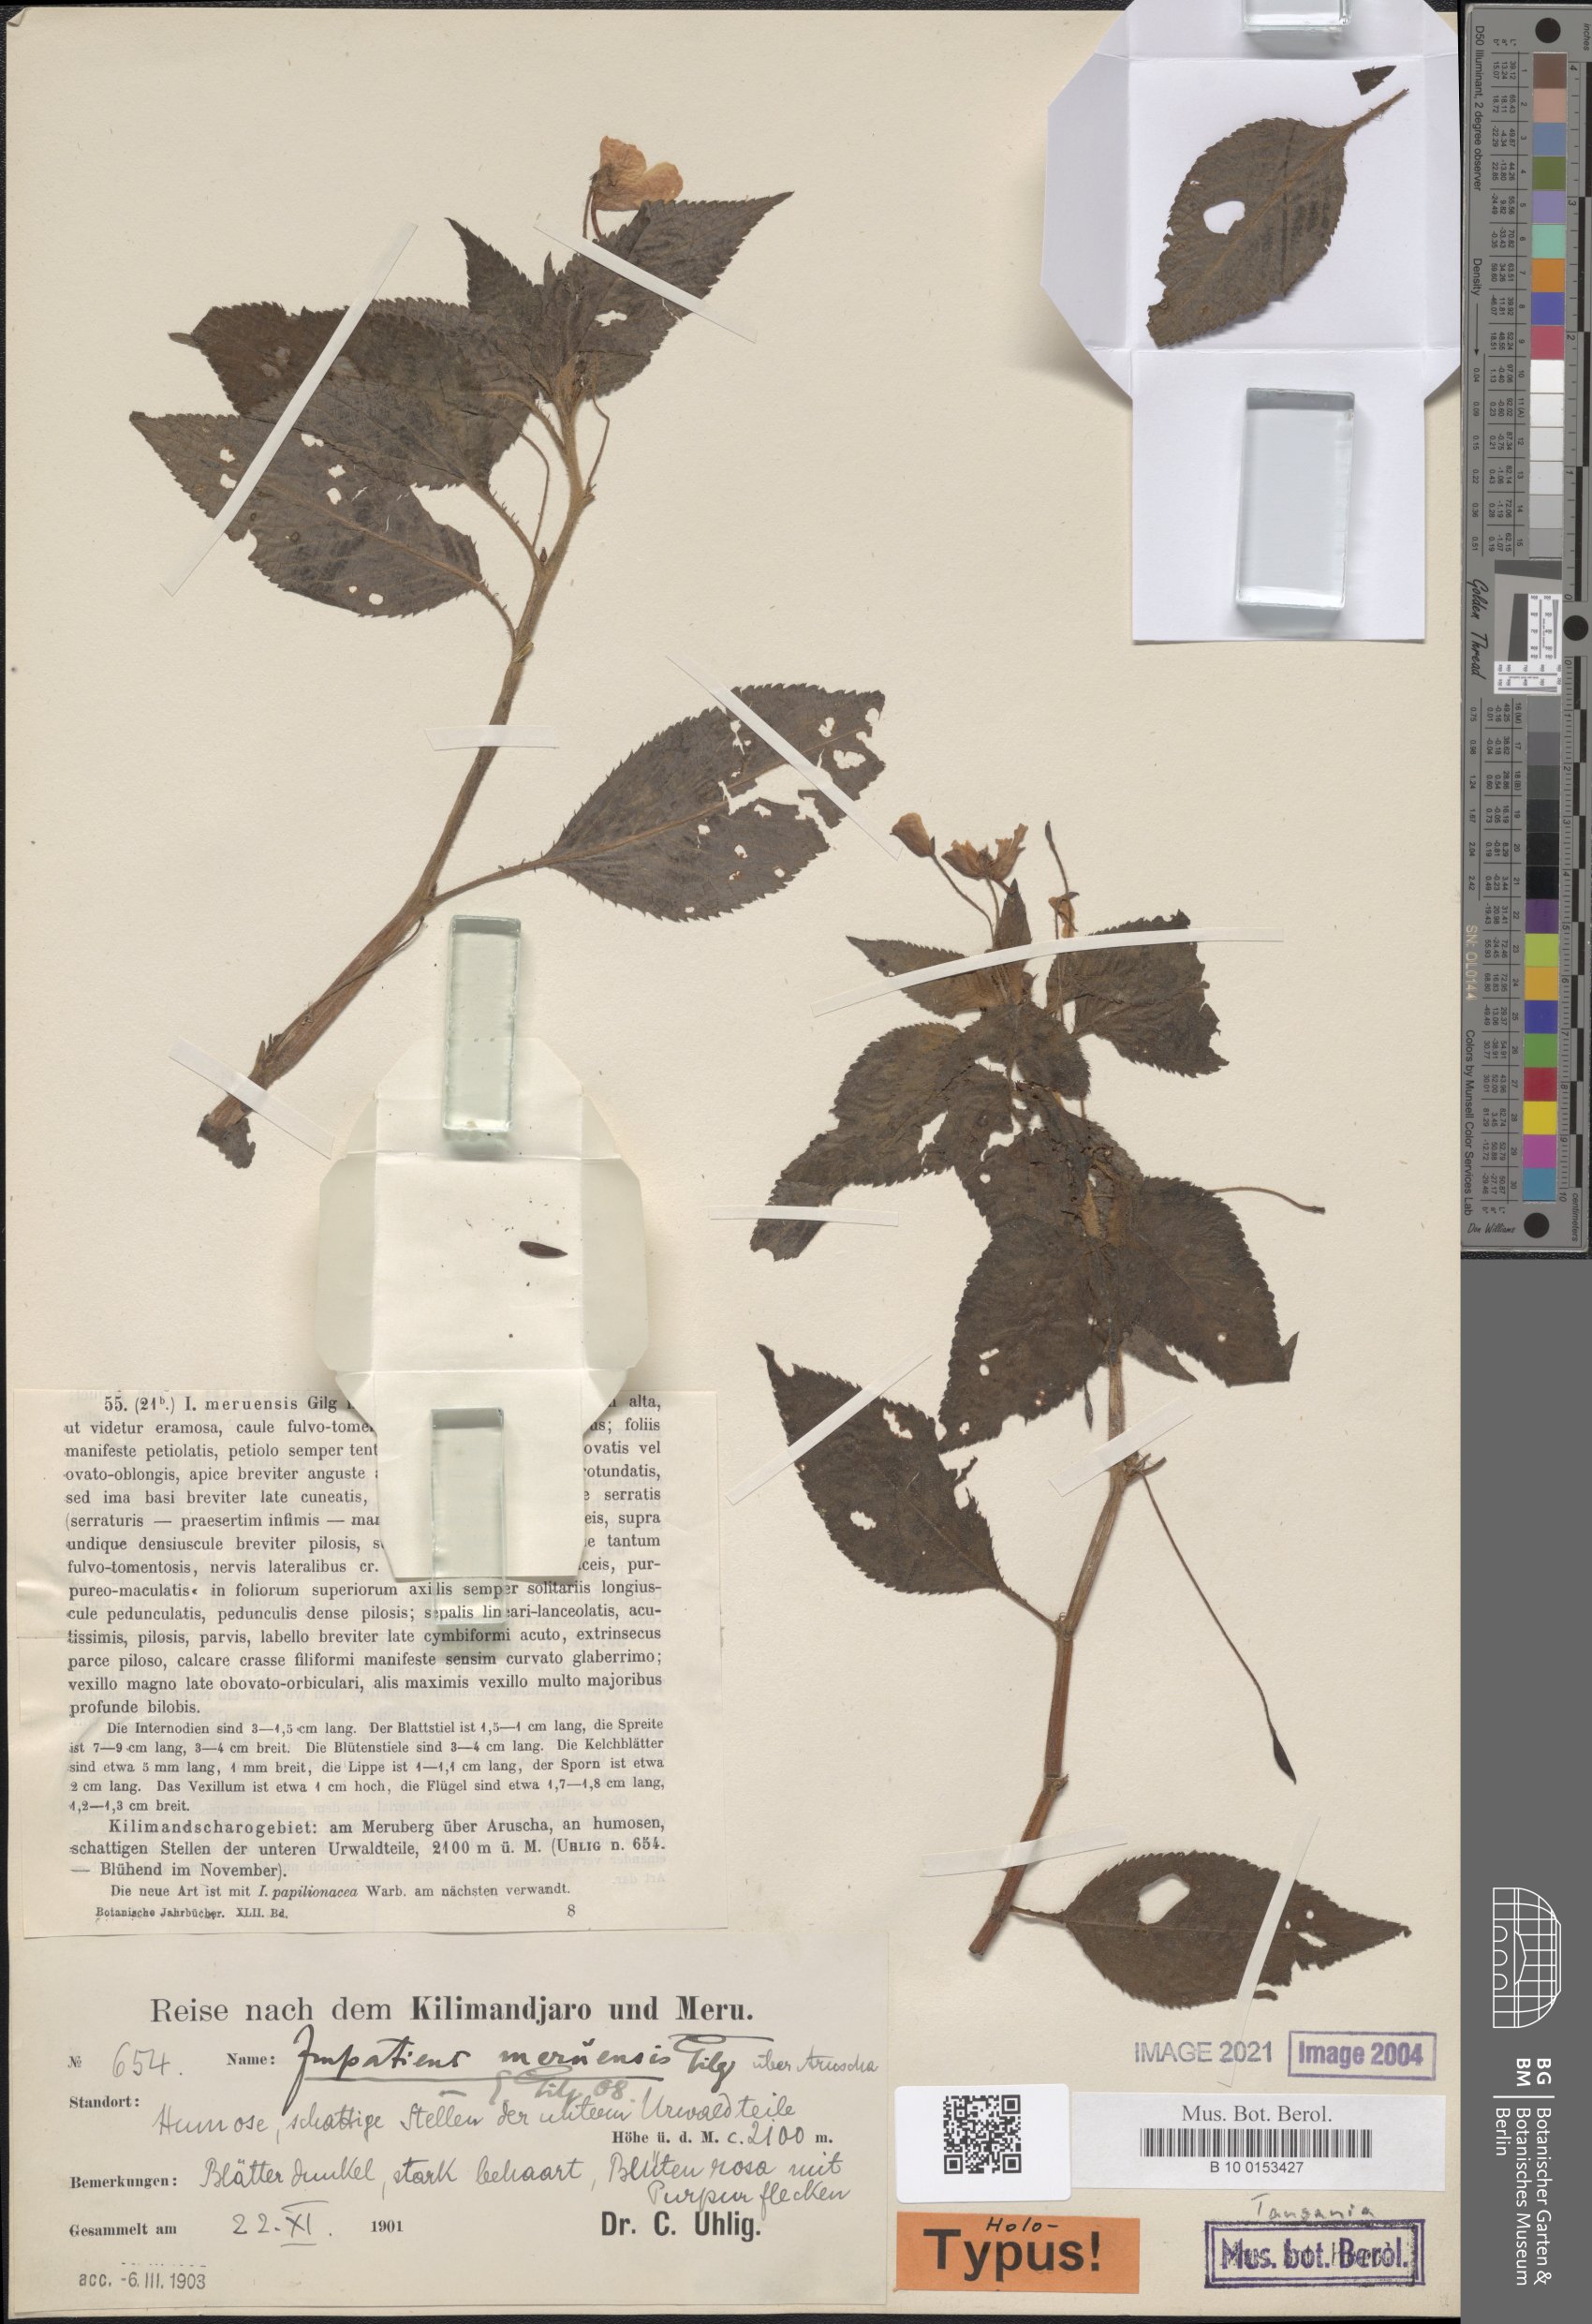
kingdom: Plantae
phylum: Tracheophyta
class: Magnoliopsida
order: Ericales
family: Balsaminaceae
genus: Impatiens
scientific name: Impatiens meruensis
